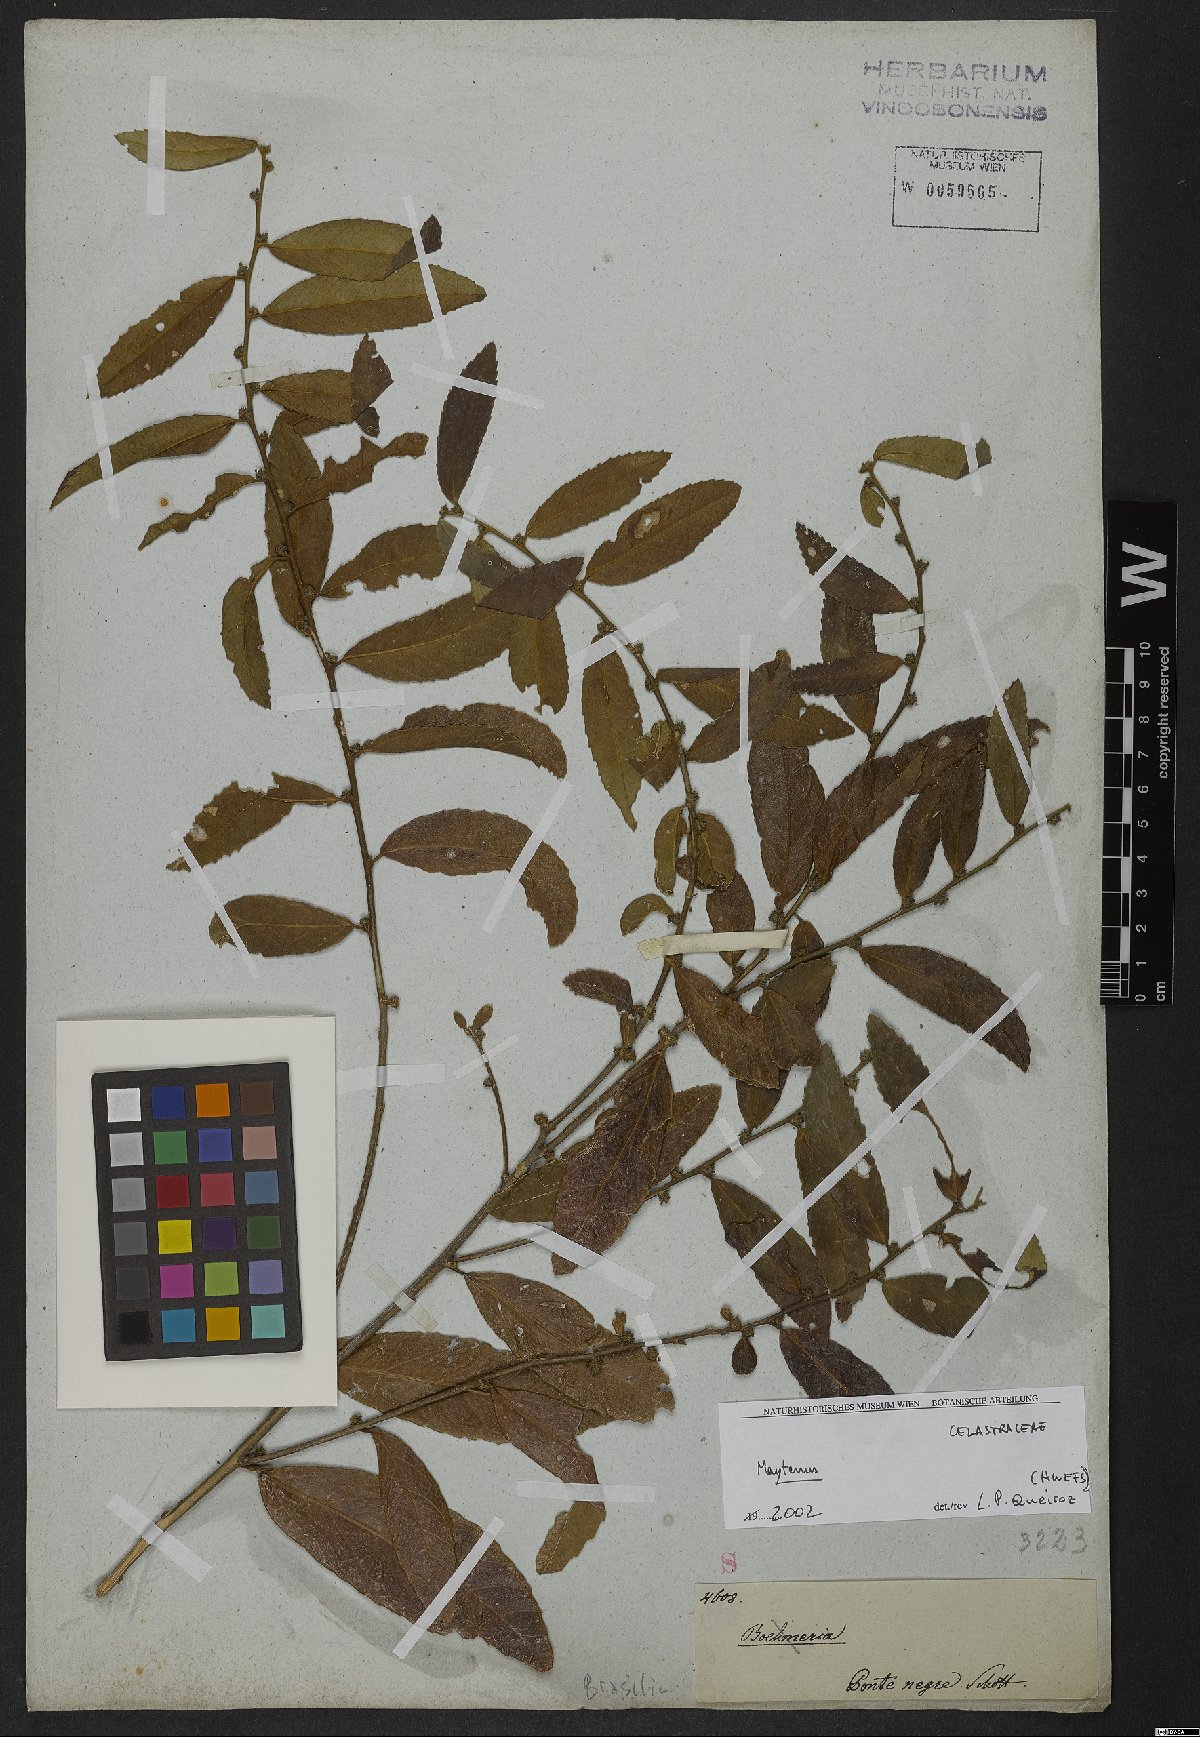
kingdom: Plantae
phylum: Tracheophyta
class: Magnoliopsida
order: Celastrales
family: Celastraceae
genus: Maytenus
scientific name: Maytenus
